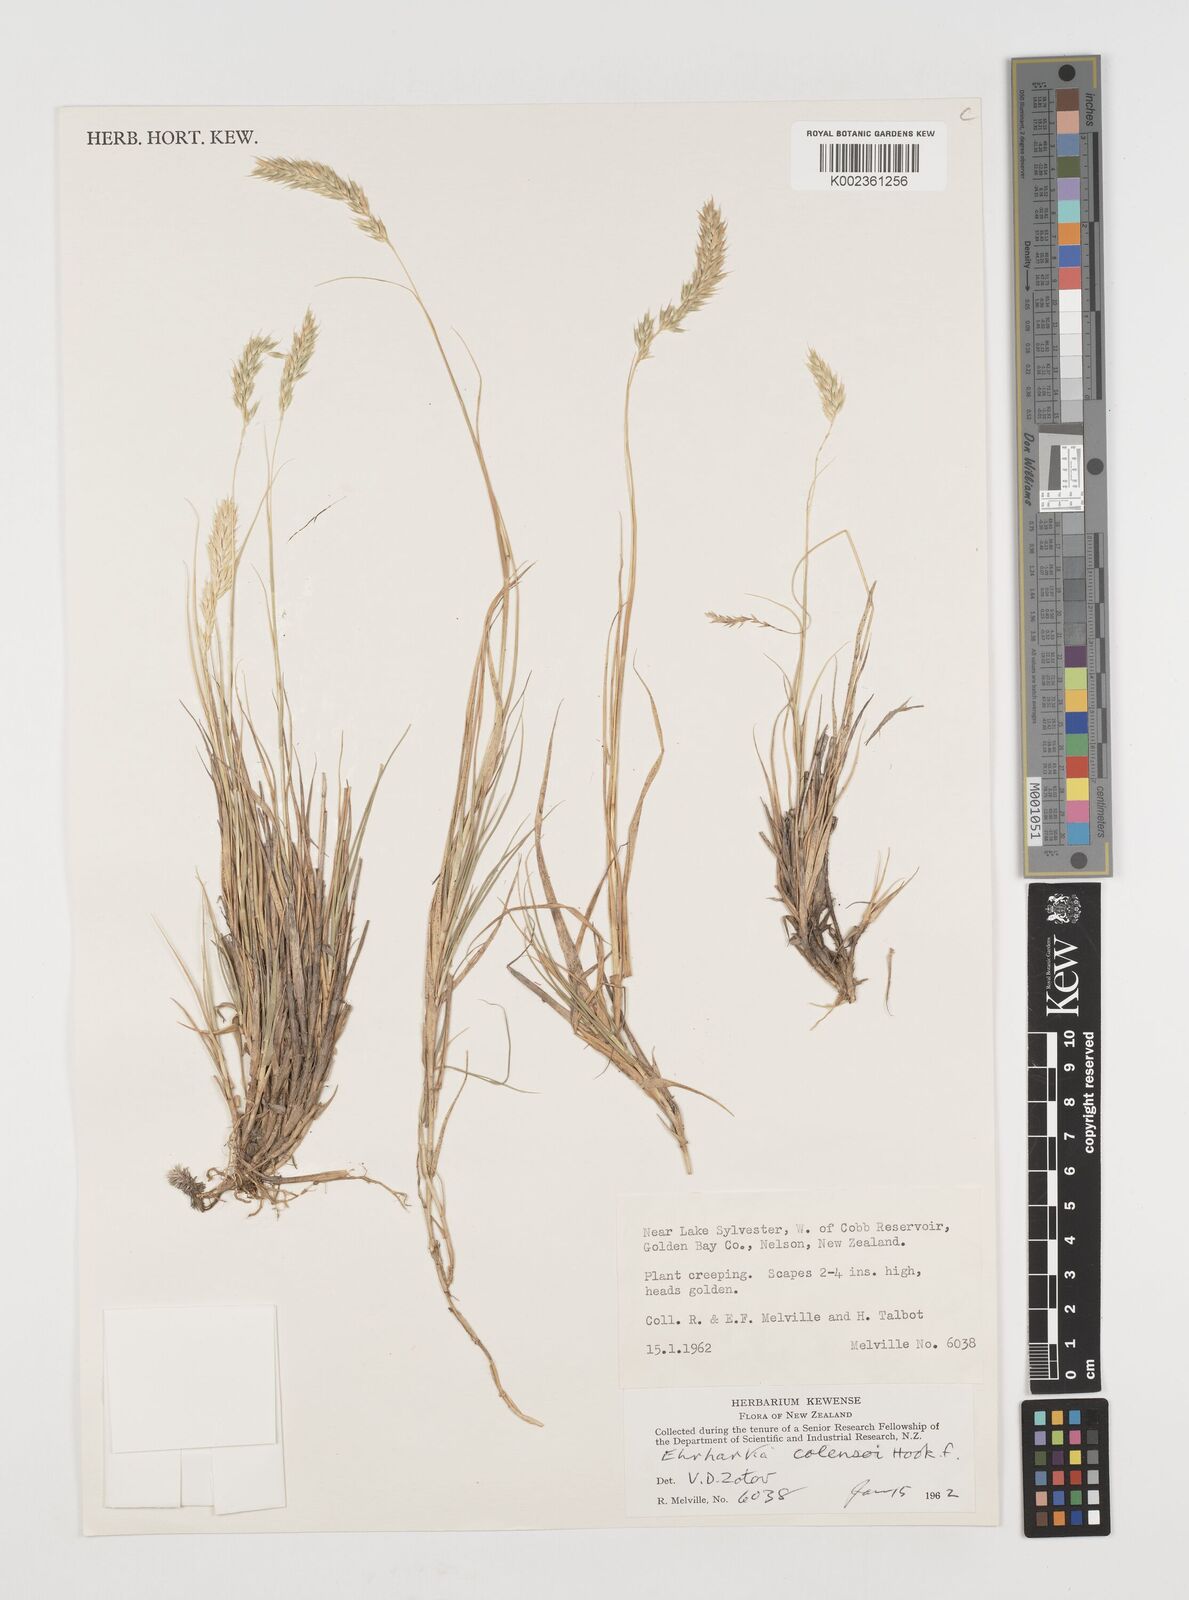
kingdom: Plantae
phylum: Tracheophyta
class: Liliopsida
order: Poales
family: Poaceae
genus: Zotovia
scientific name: Zotovia colensoi
